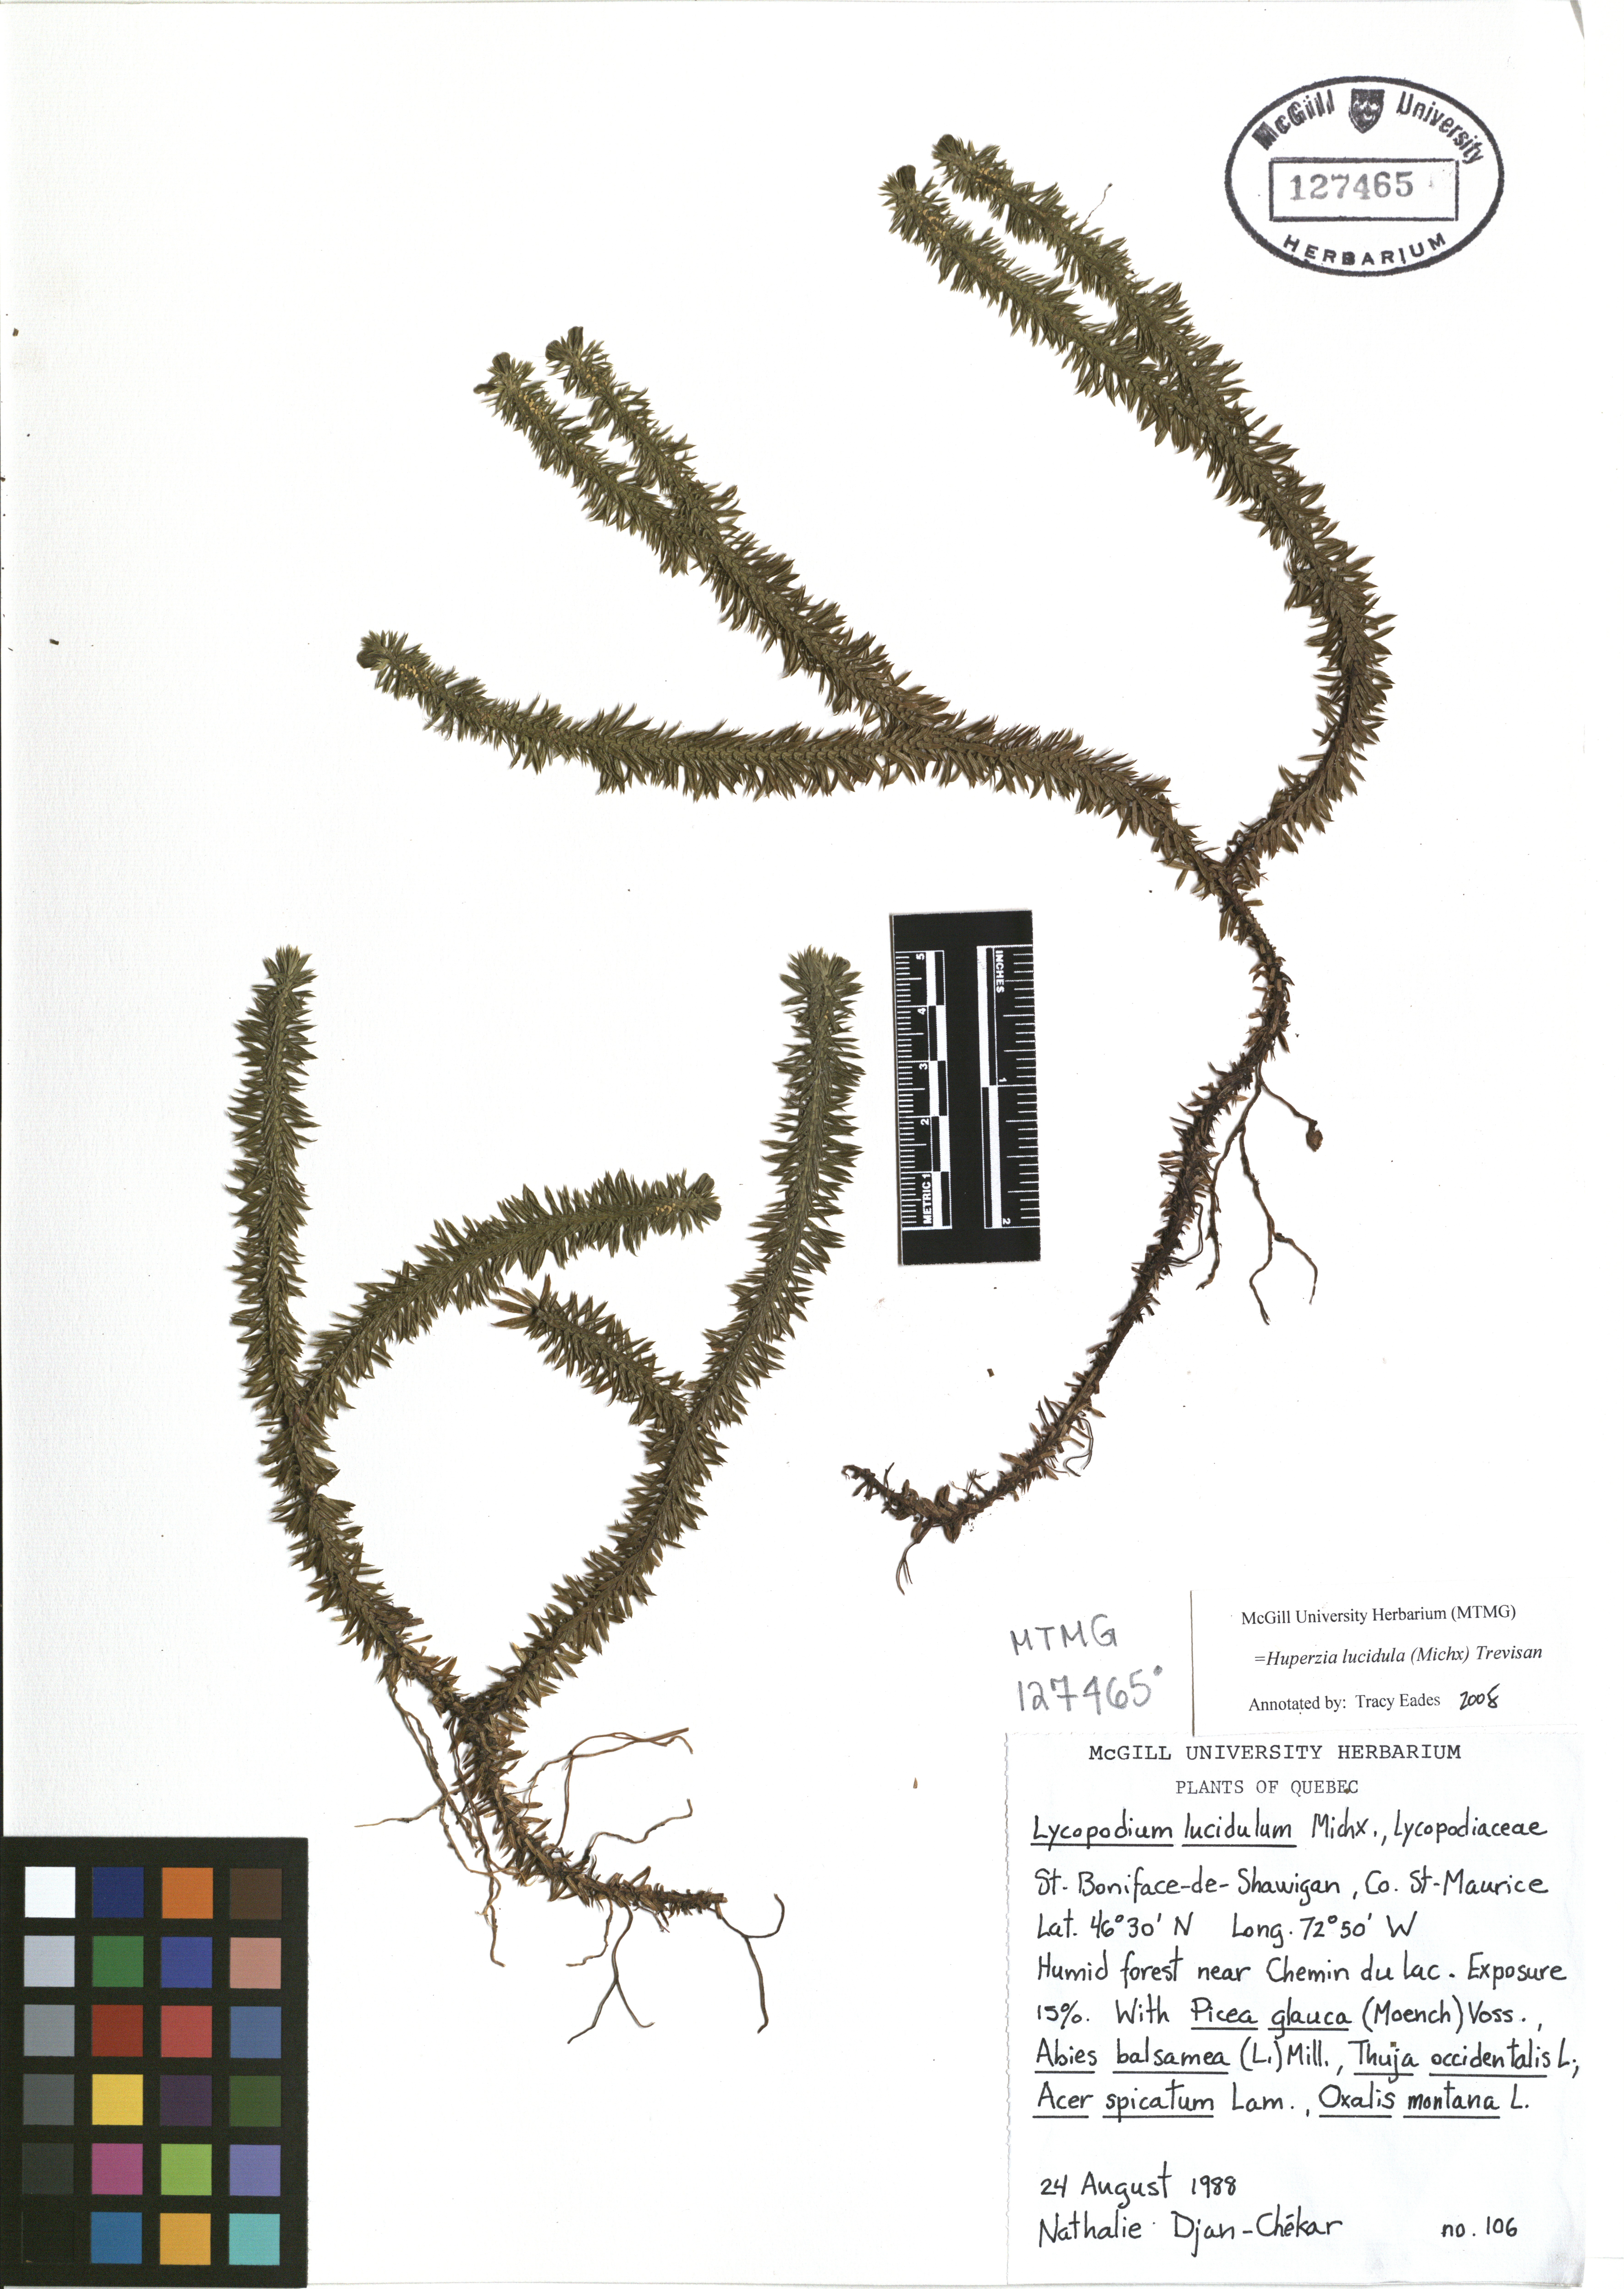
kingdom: Plantae
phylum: Tracheophyta
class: Lycopodiopsida
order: Lycopodiales
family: Lycopodiaceae
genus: Huperzia
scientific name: Huperzia lucidula
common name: Shining clubmoss
